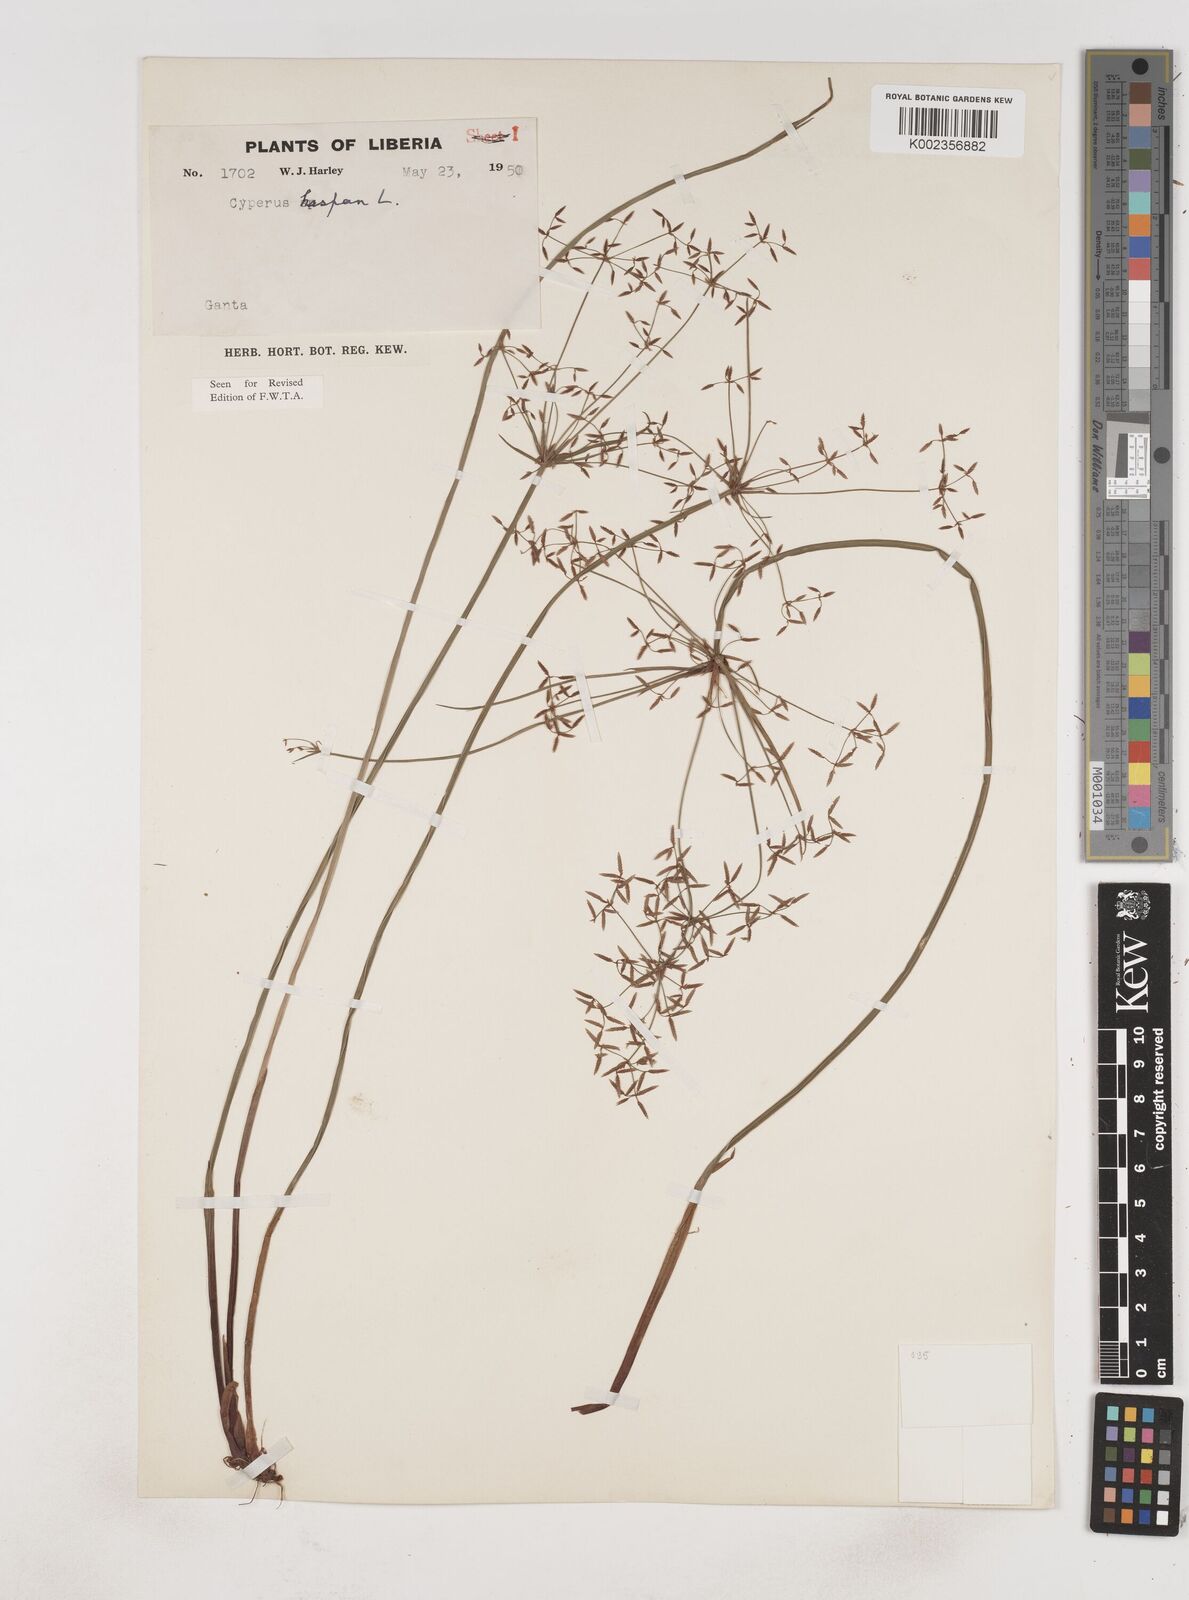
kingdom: Plantae
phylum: Tracheophyta
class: Liliopsida
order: Poales
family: Cyperaceae
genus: Cyperus
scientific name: Cyperus haspan
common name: Haspan flatsedge
